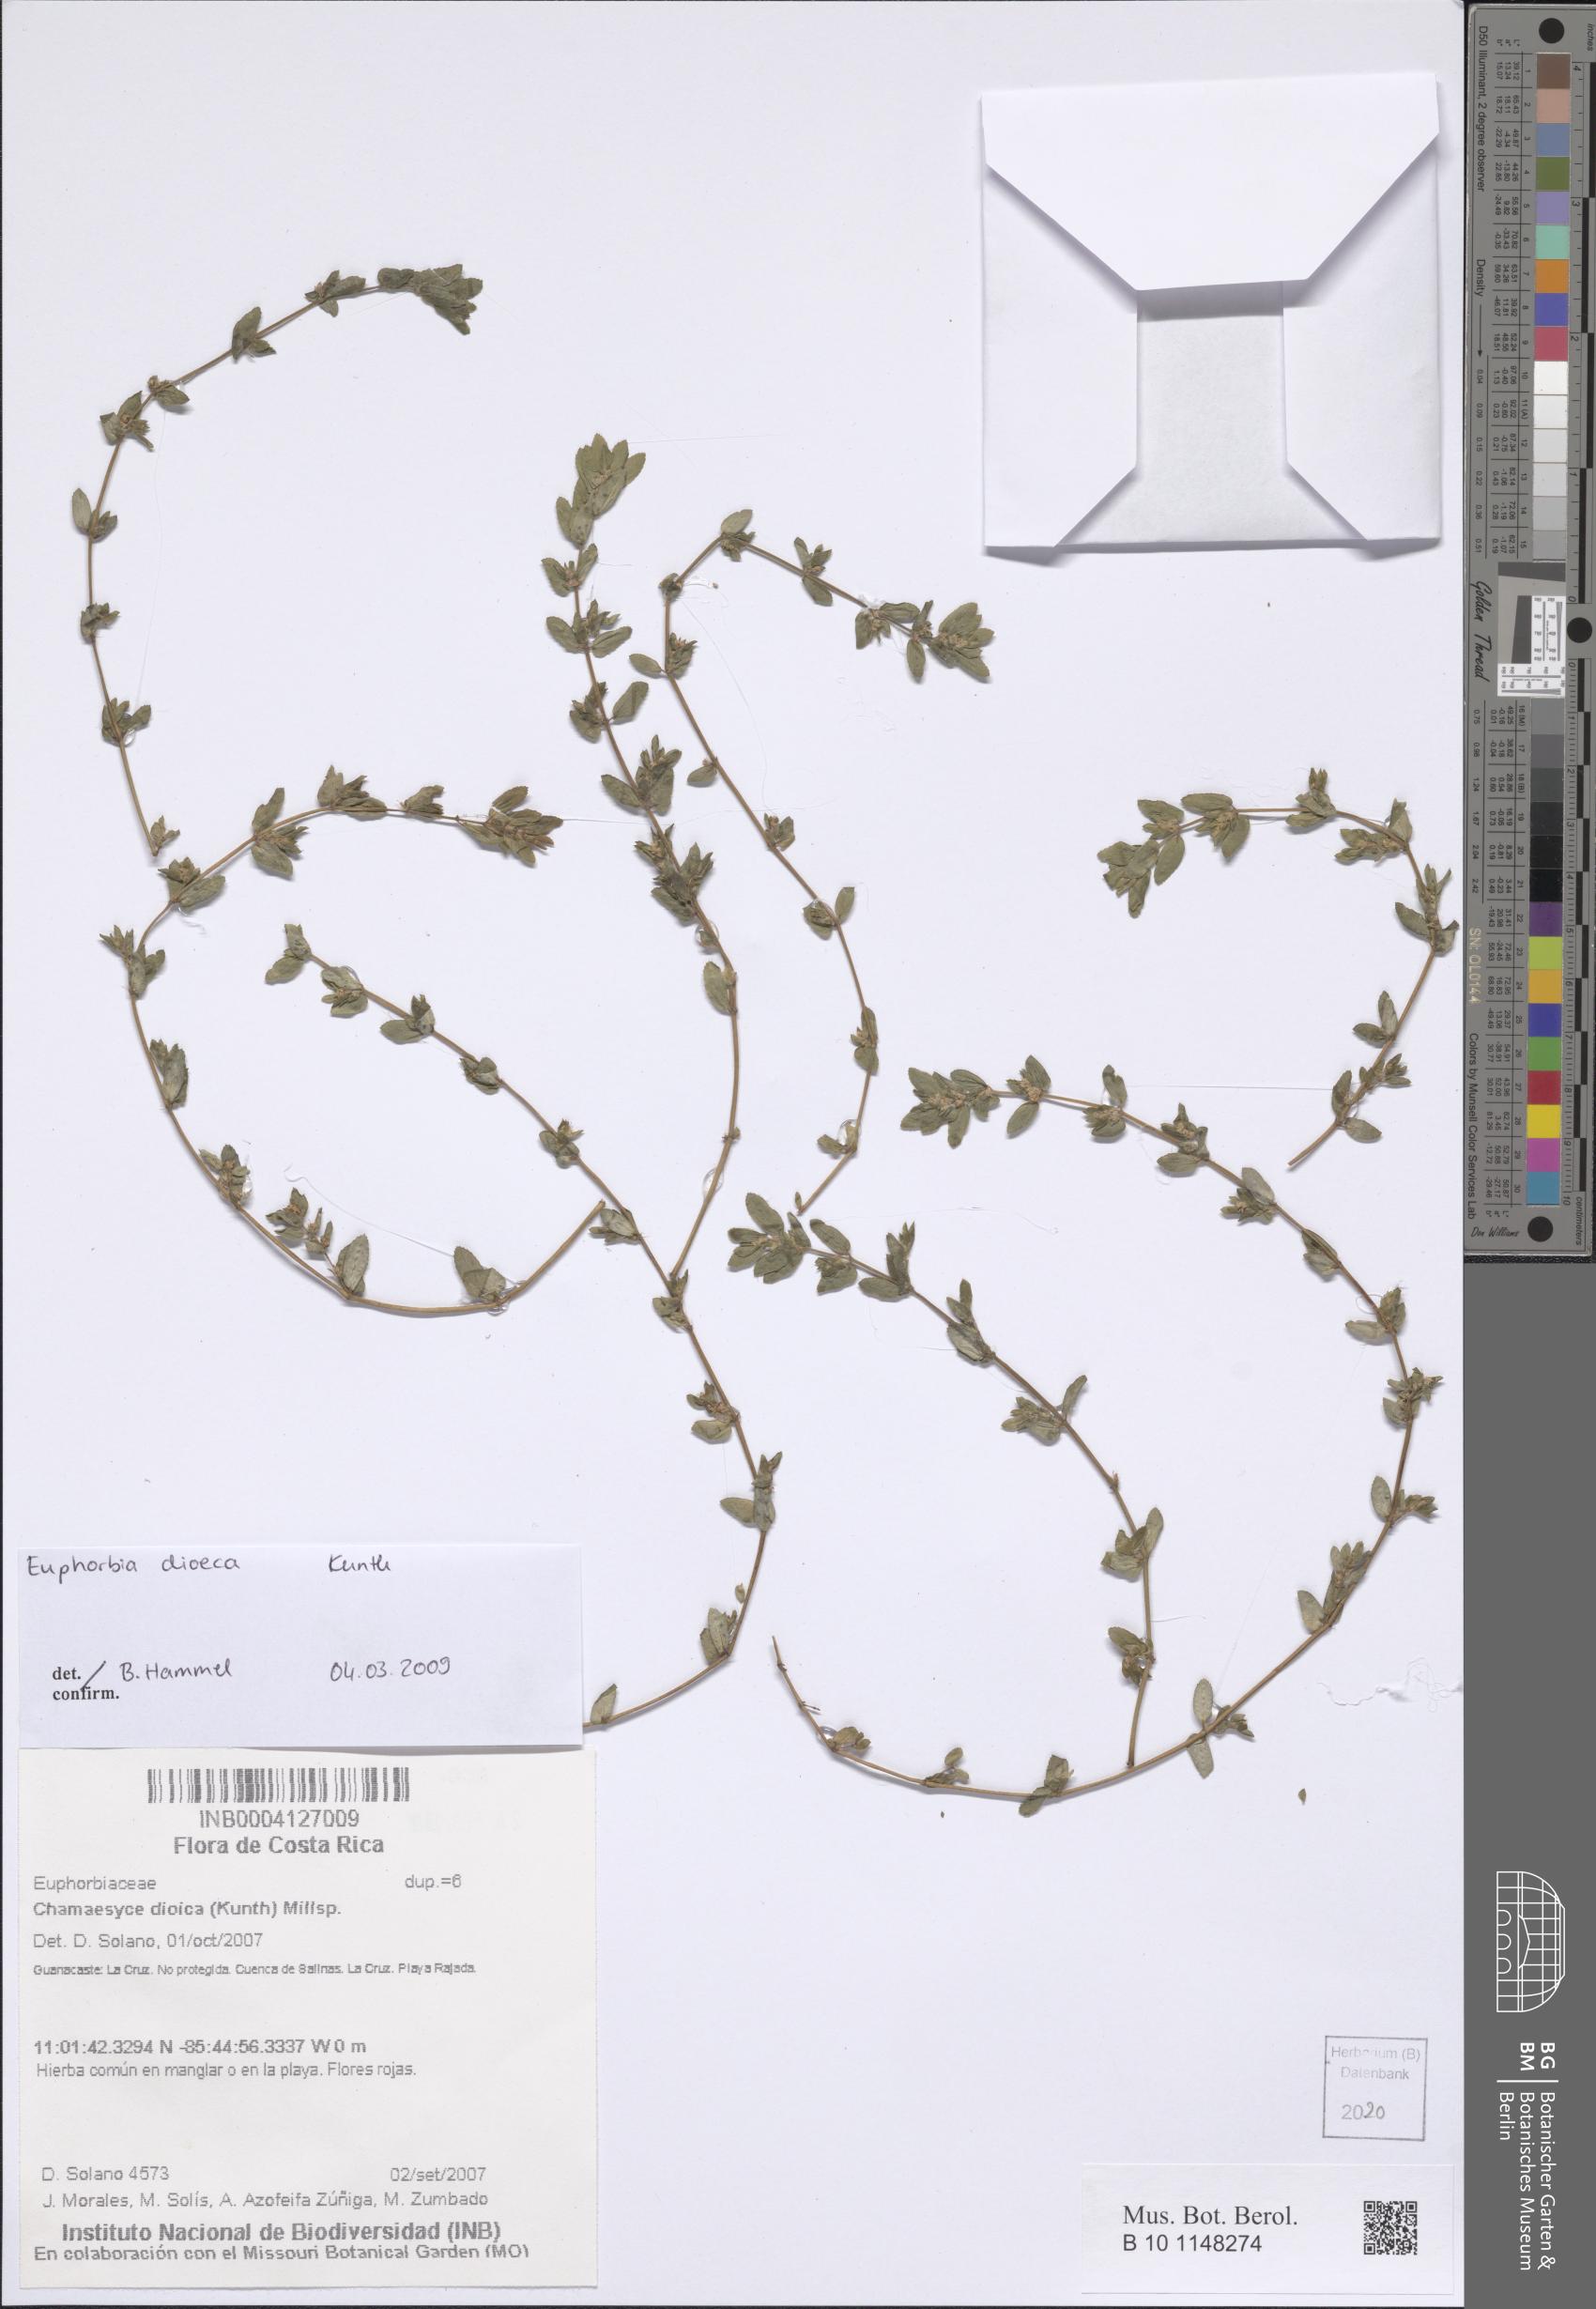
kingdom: Plantae
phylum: Tracheophyta
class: Magnoliopsida
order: Malpighiales
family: Euphorbiaceae
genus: Euphorbia
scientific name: Euphorbia dioeca
